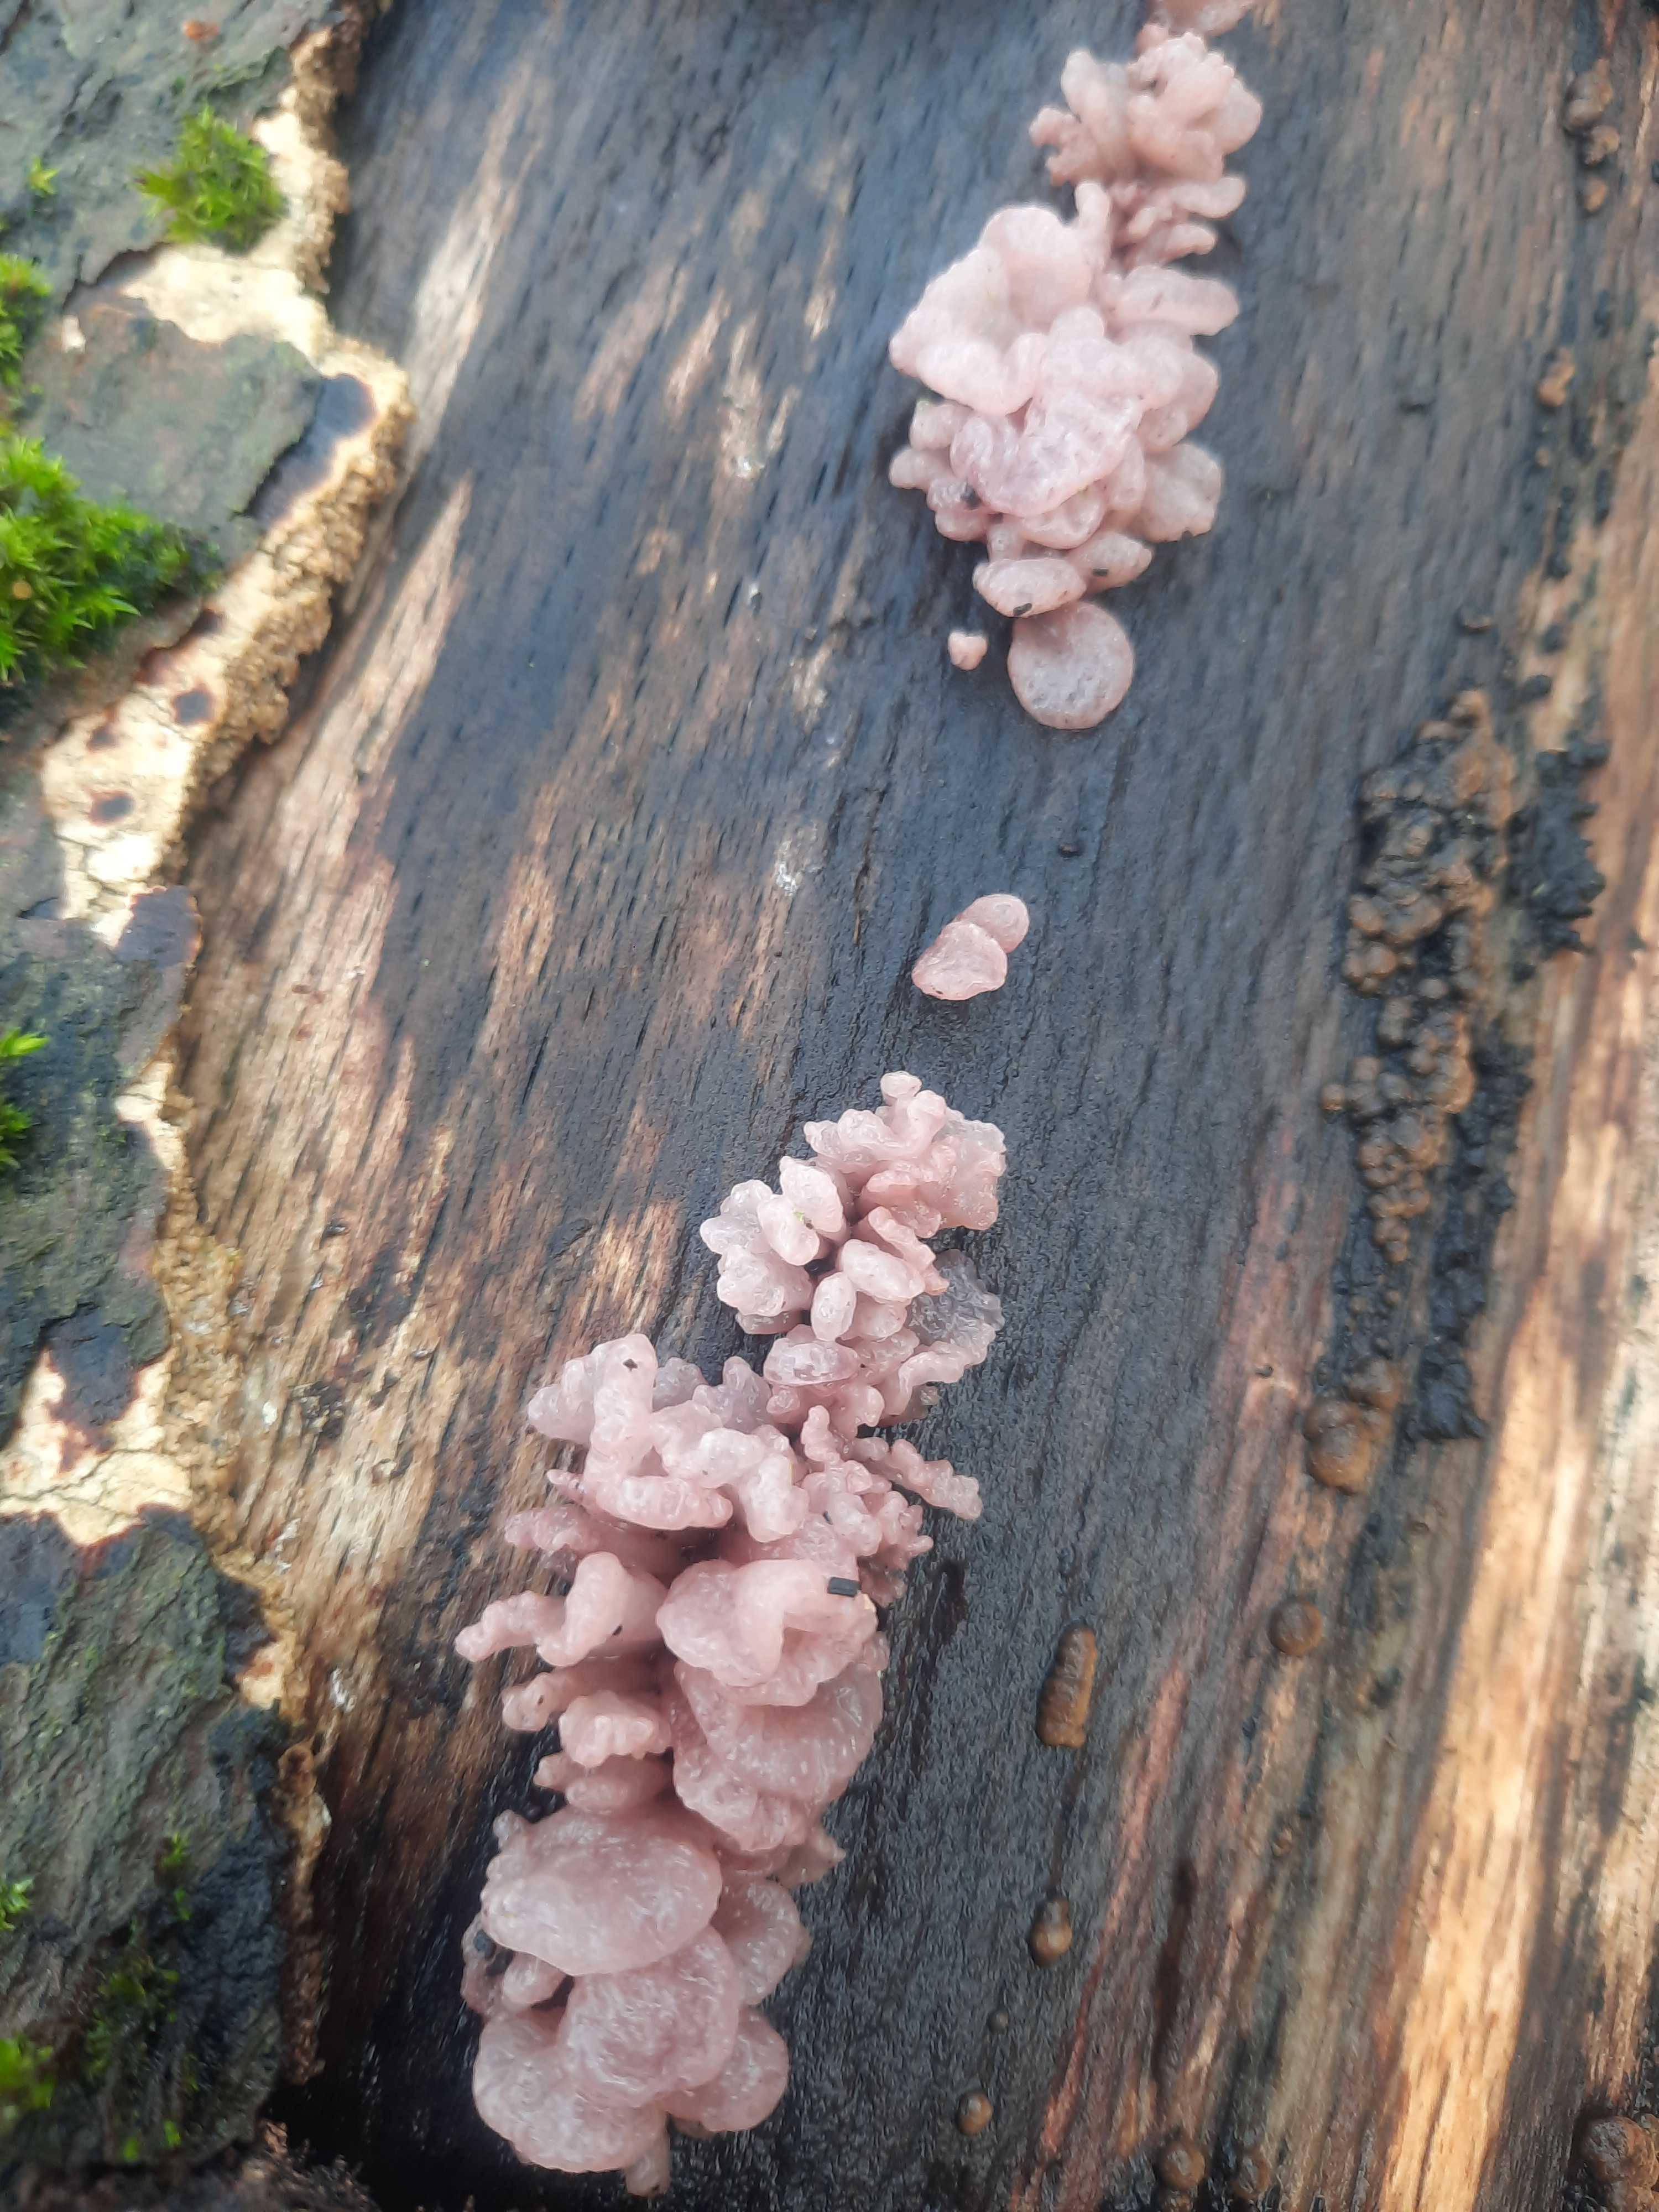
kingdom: Fungi
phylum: Ascomycota
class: Leotiomycetes
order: Helotiales
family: Gelatinodiscaceae
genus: Ascocoryne
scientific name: Ascocoryne sarcoides
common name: rødlilla sejskive
